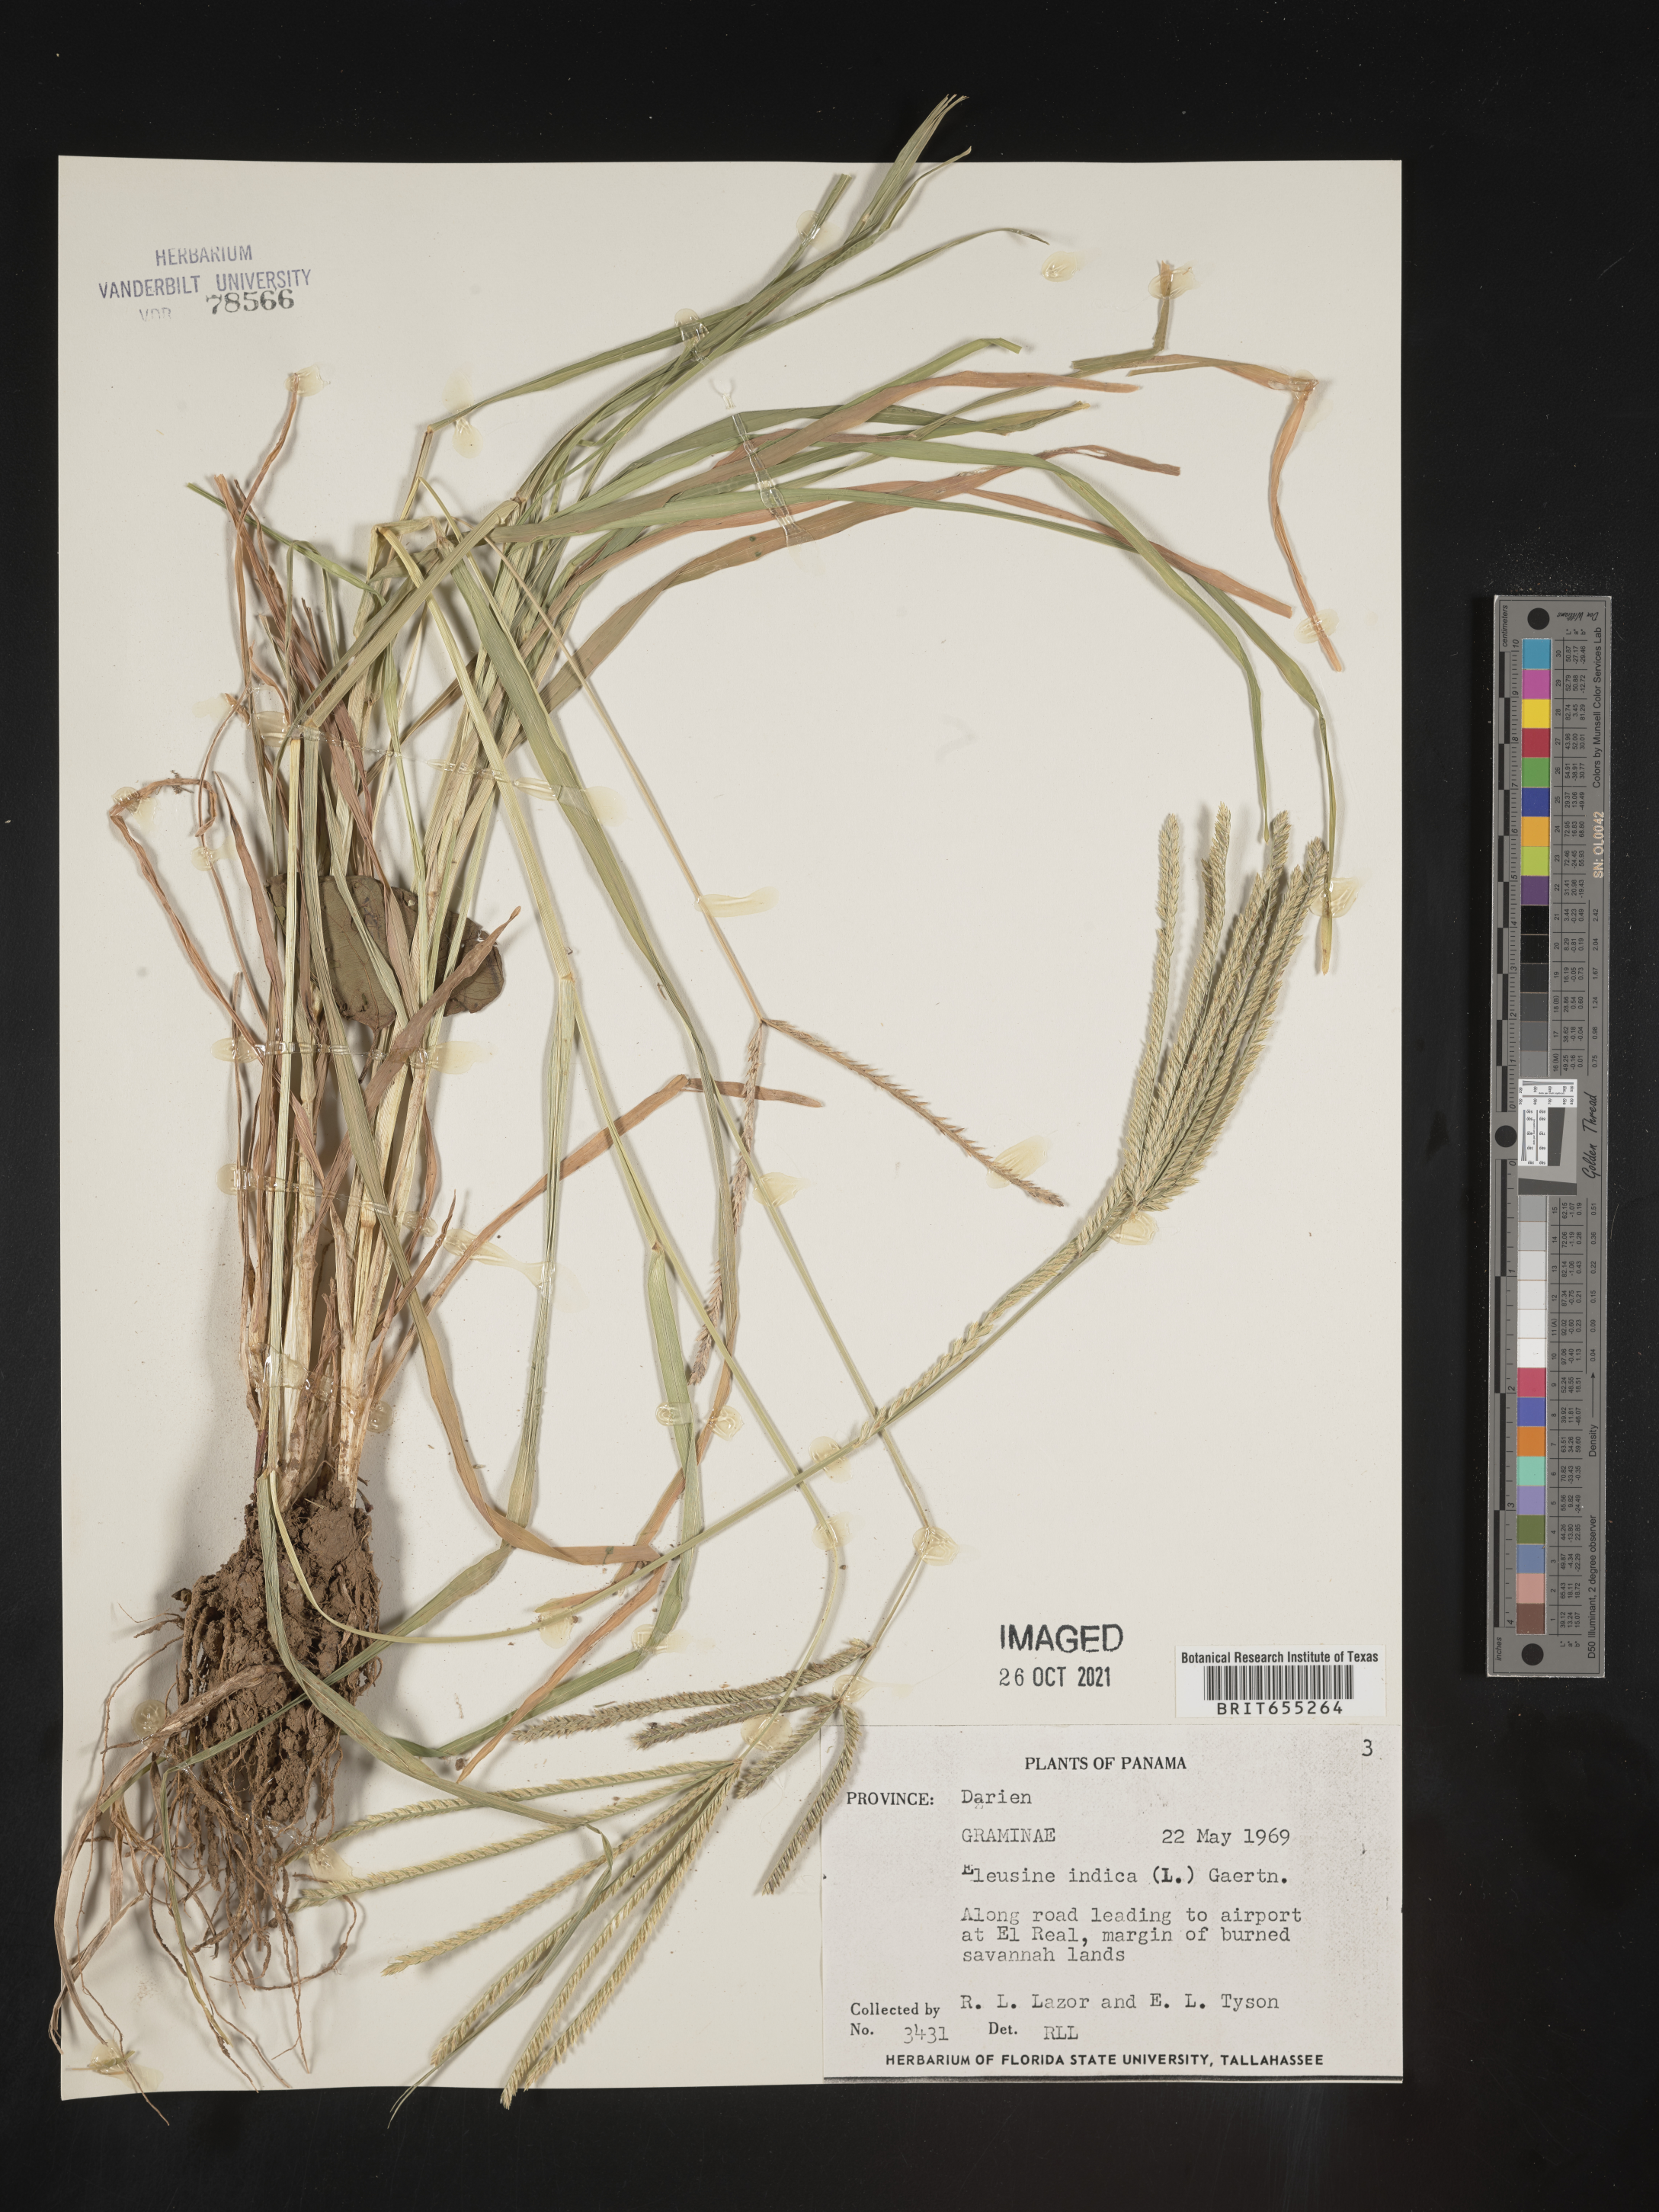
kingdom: Plantae
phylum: Tracheophyta
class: Liliopsida
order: Poales
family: Poaceae
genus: Eleusine
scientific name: Eleusine
